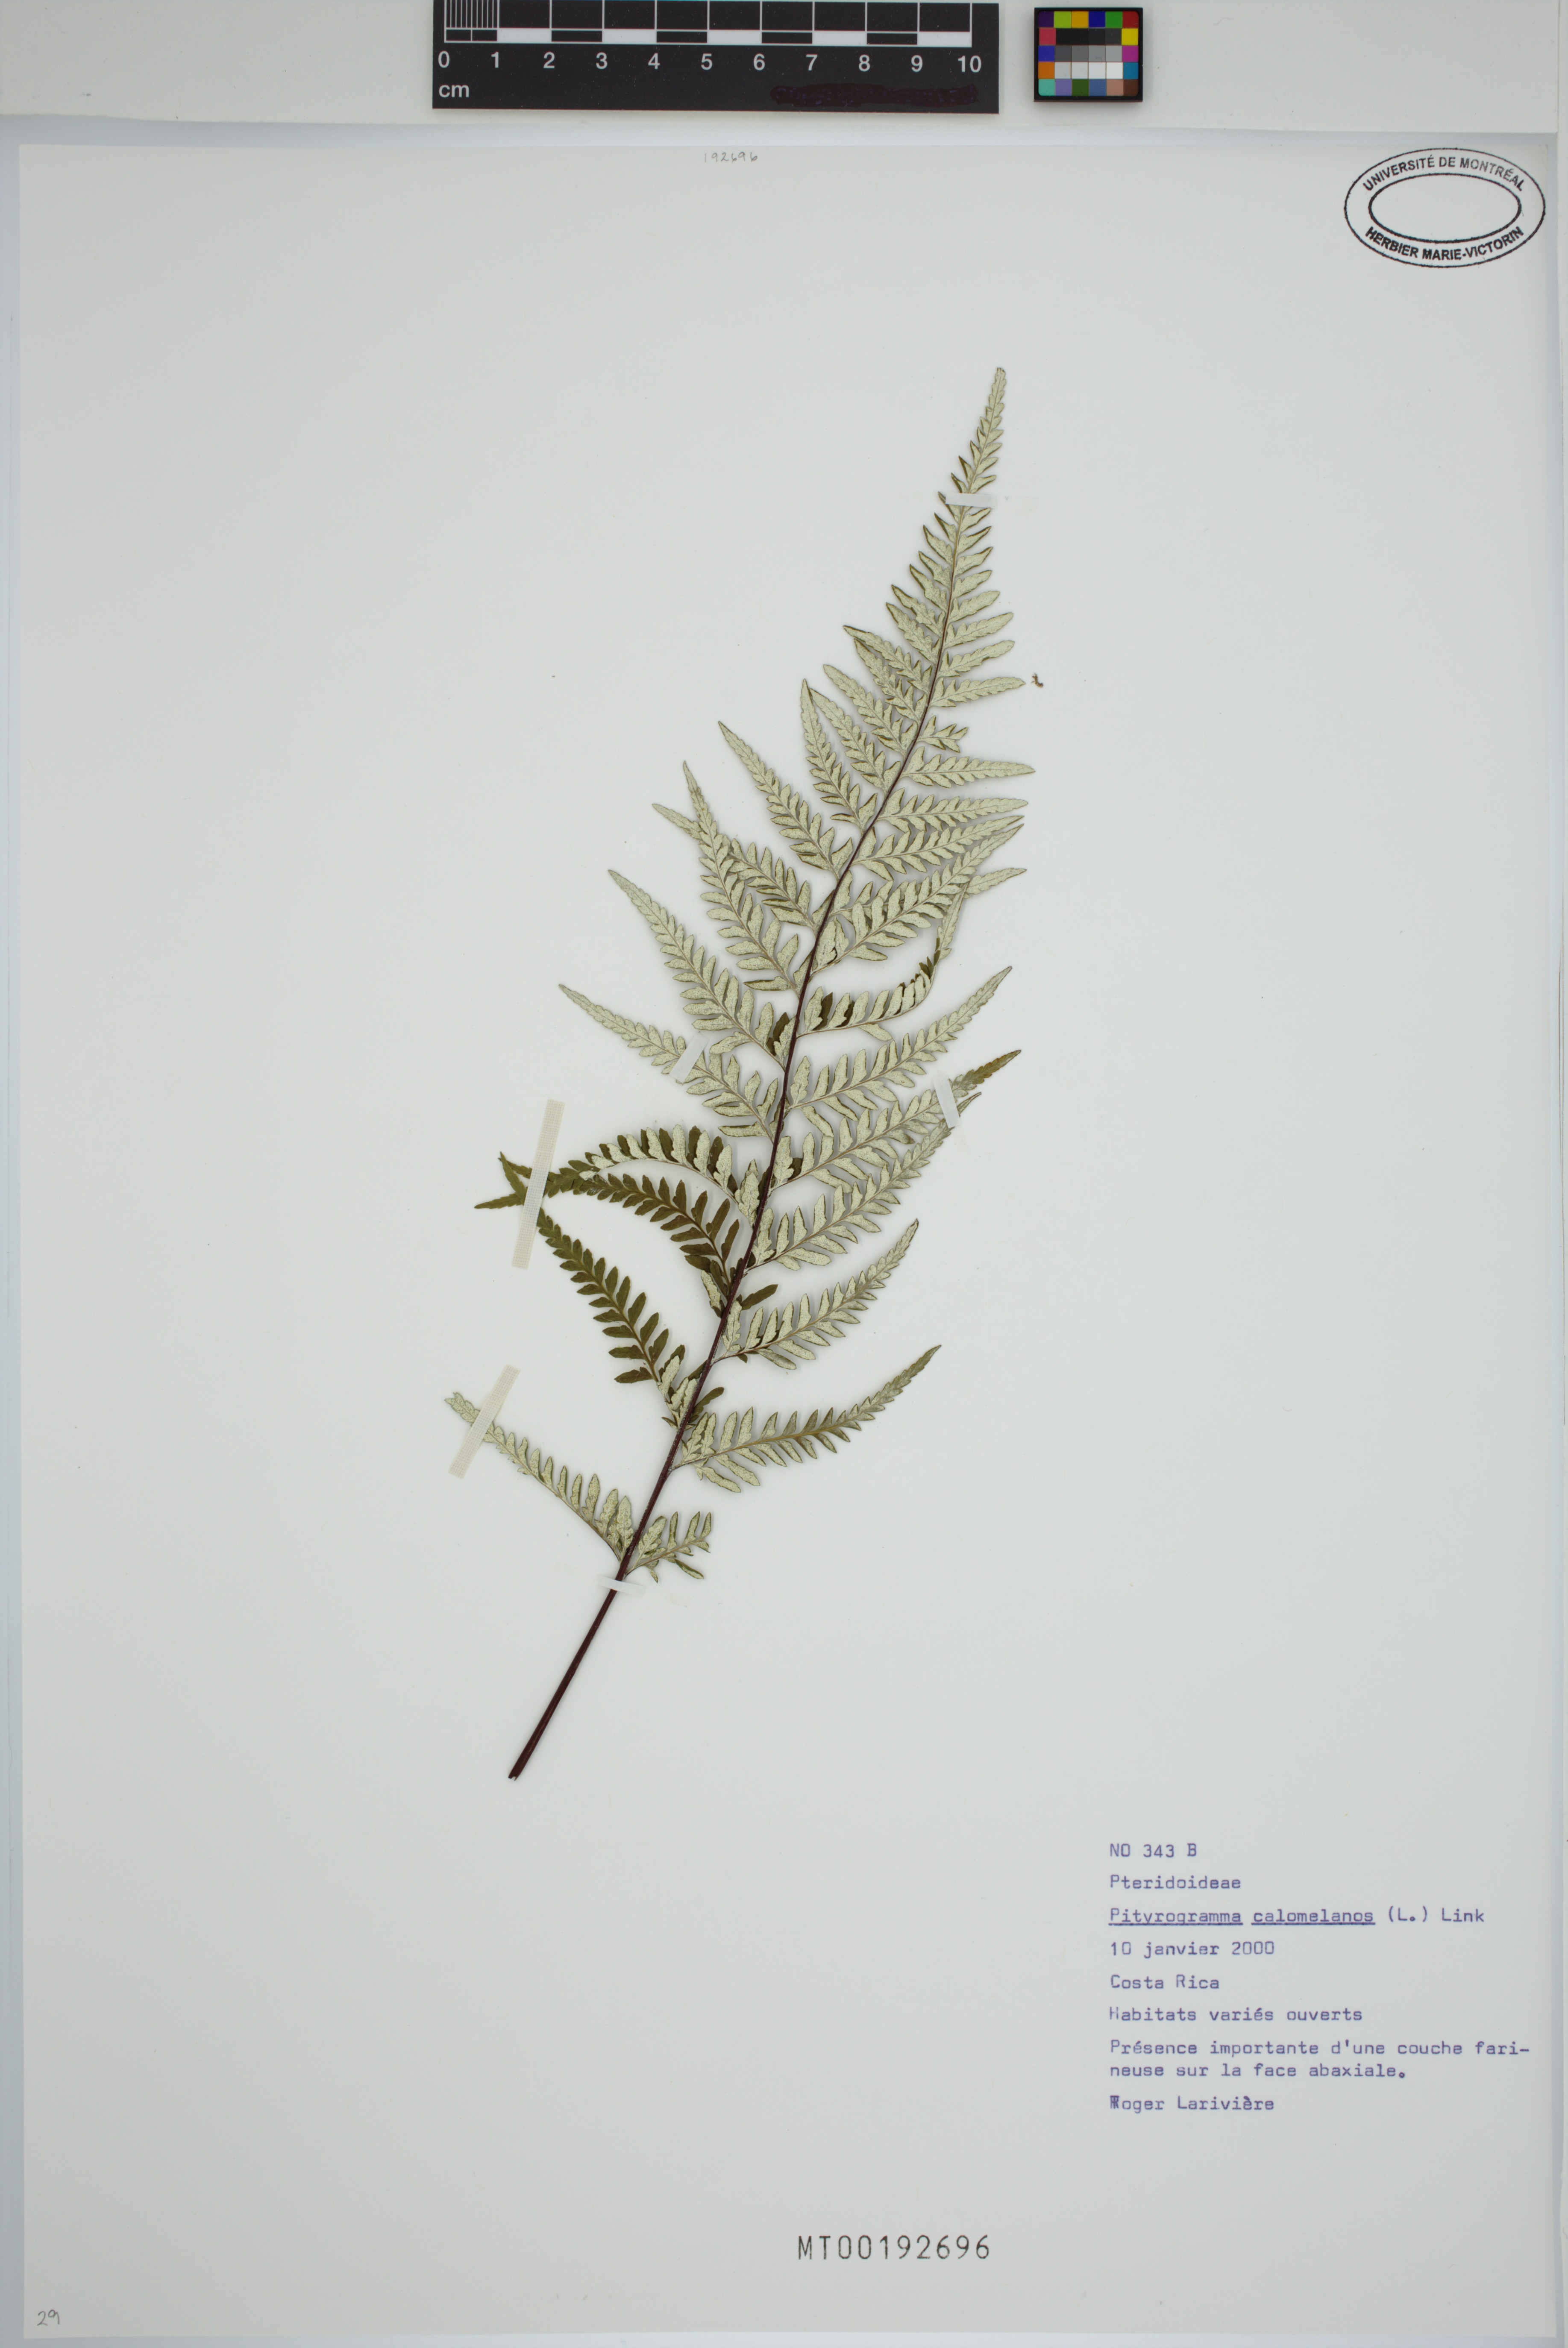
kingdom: Plantae
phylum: Tracheophyta
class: Polypodiopsida
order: Polypodiales
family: Pteridaceae
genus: Pityrogramma
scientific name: Pityrogramma calomelanos
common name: Dixie silverback fern
